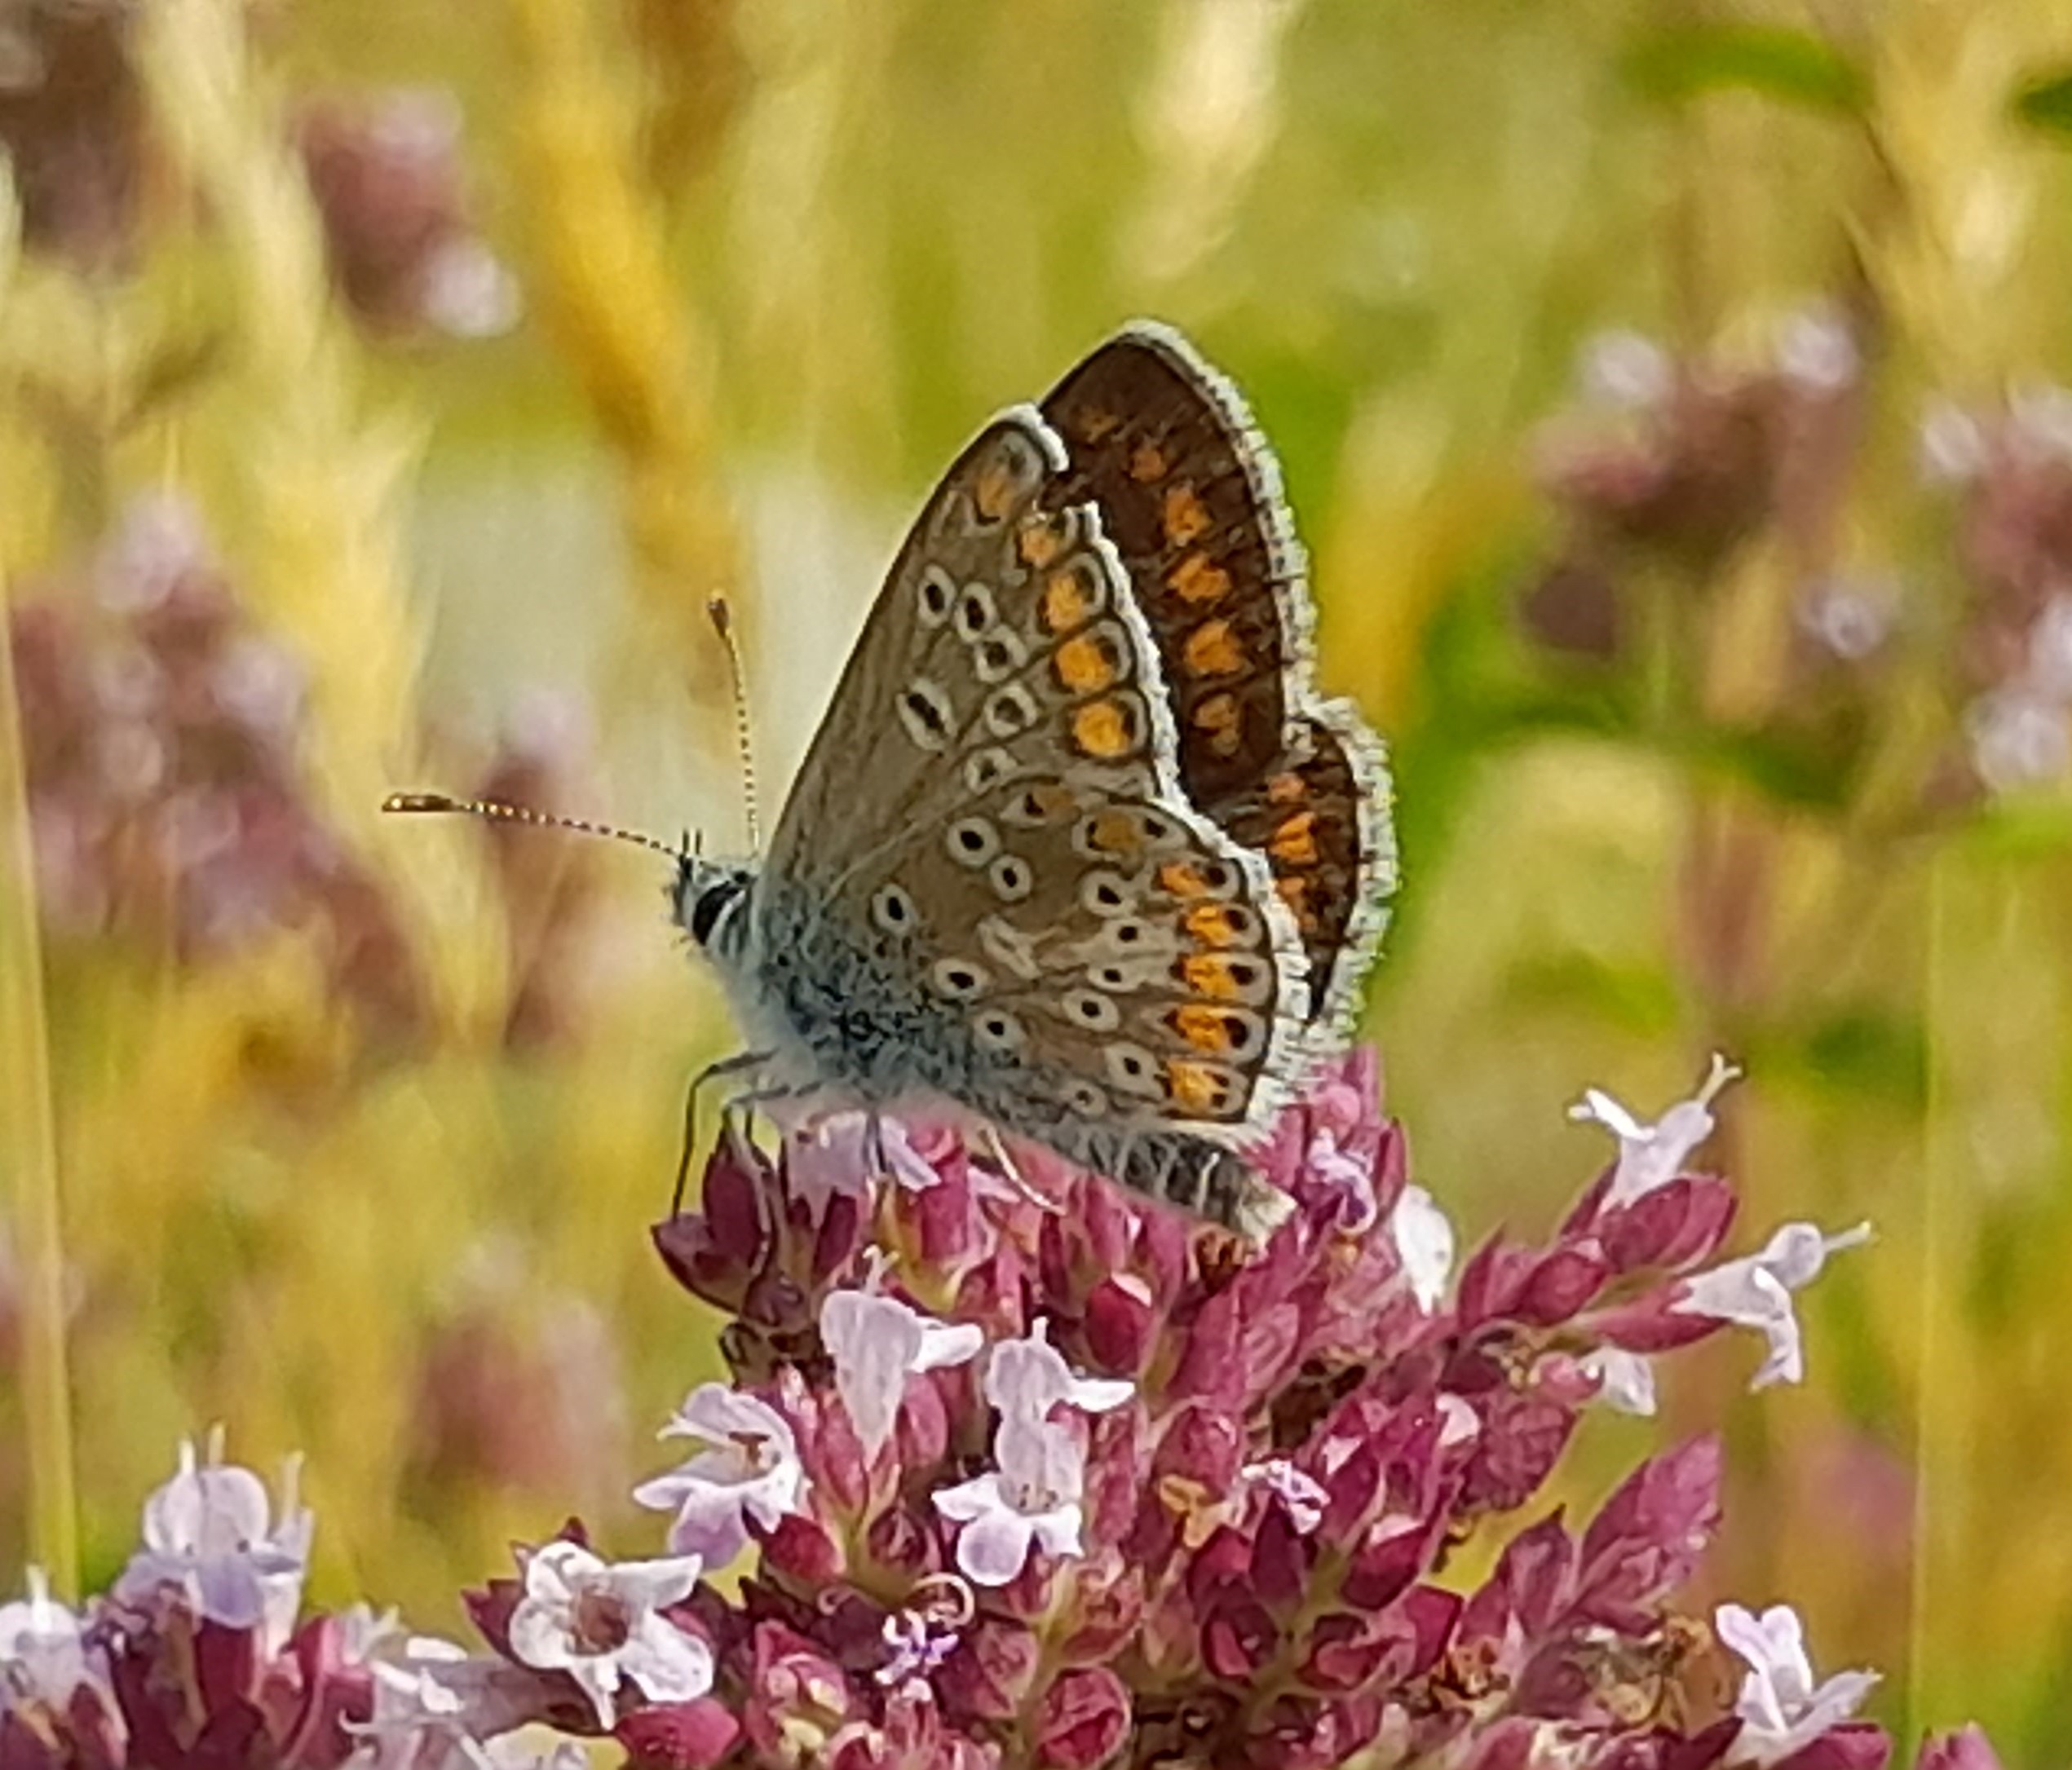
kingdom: Animalia
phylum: Arthropoda
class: Insecta
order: Lepidoptera
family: Lycaenidae
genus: Aricia
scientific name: Aricia agestis
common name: Rødplettet blåfugl
